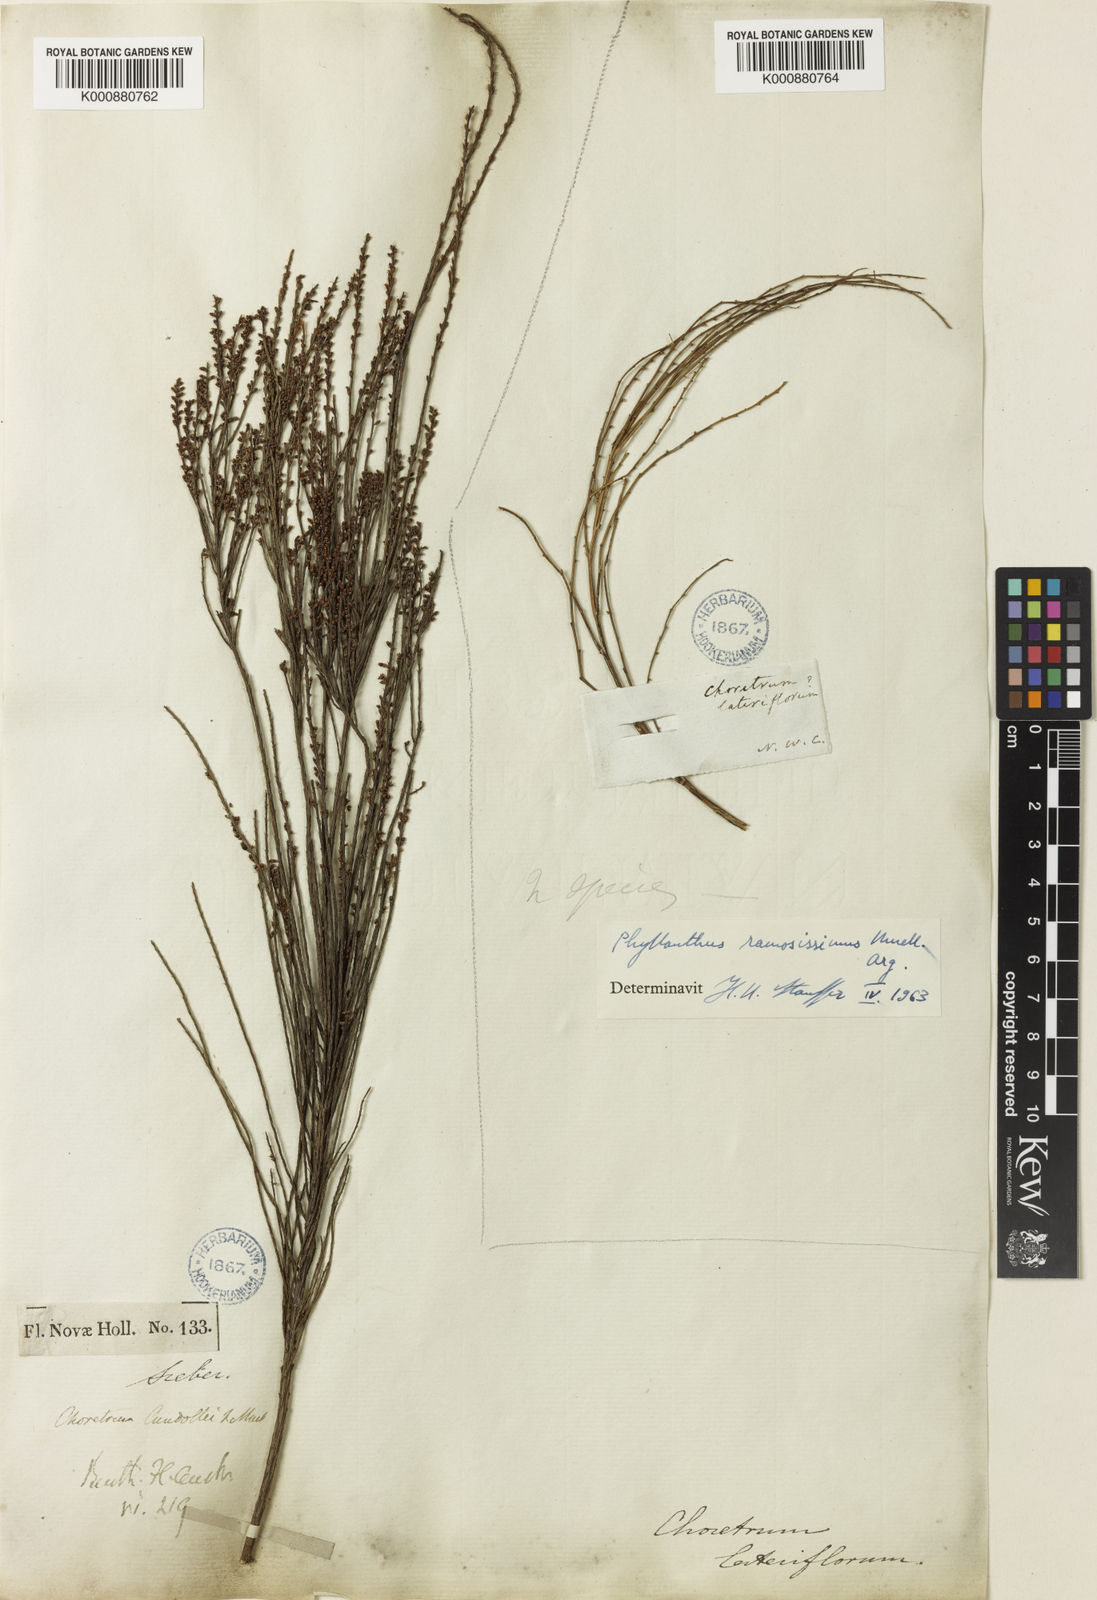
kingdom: Plantae
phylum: Tracheophyta
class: Magnoliopsida
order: Santalales
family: Amphorogynaceae
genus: Choretrum
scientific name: Choretrum candollei
